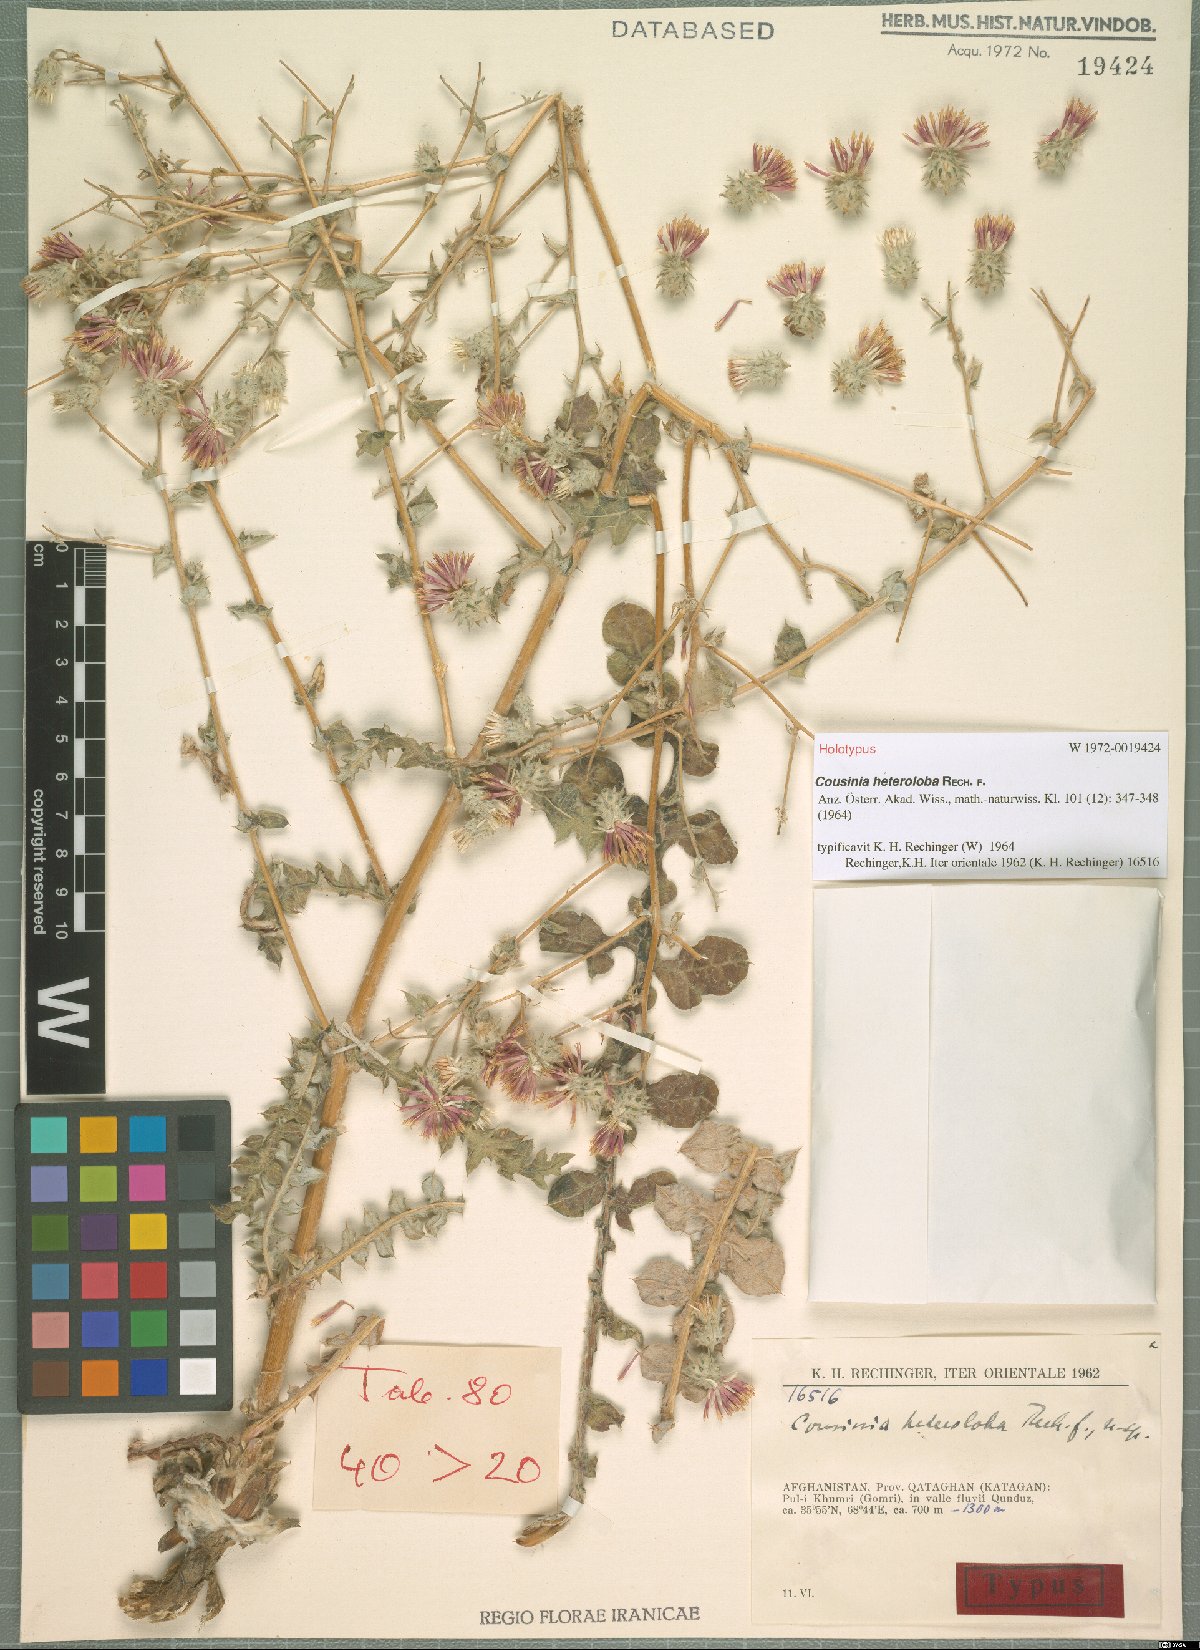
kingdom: Plantae
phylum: Tracheophyta
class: Magnoliopsida
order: Asterales
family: Asteraceae
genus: Cousinia
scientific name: Cousinia heteroloba
